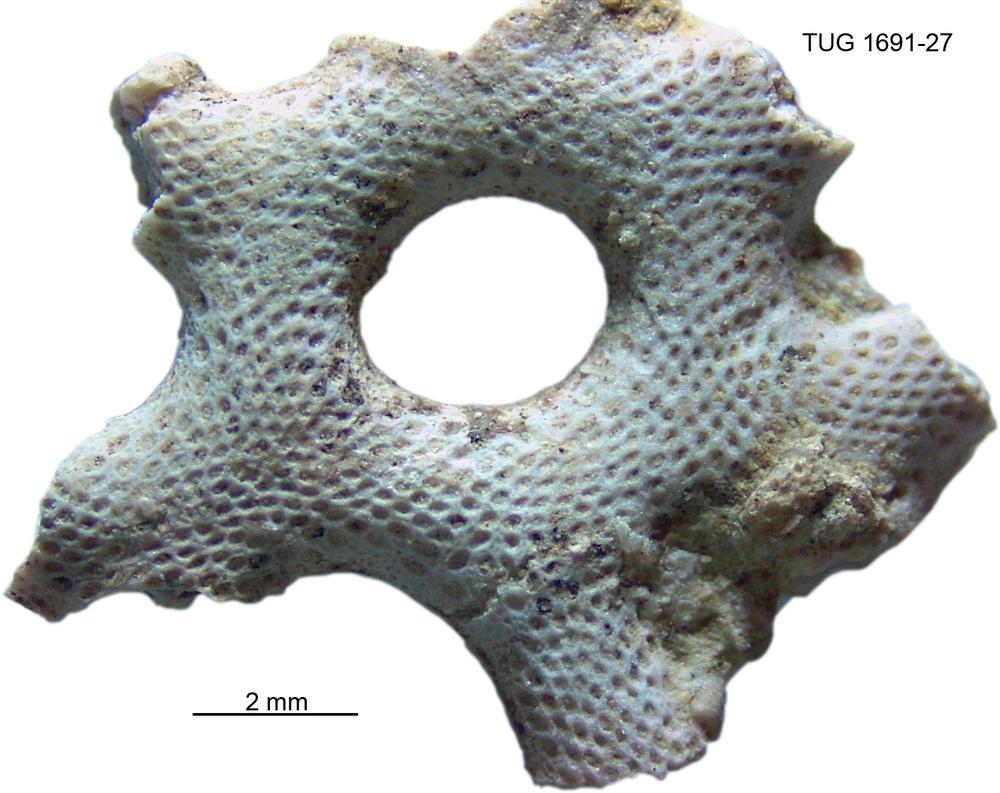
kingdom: Animalia
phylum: Bryozoa
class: Stenolaemata
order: Trepostomatida
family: Monticuliporidae
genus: Mesotrypa
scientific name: Mesotrypa
